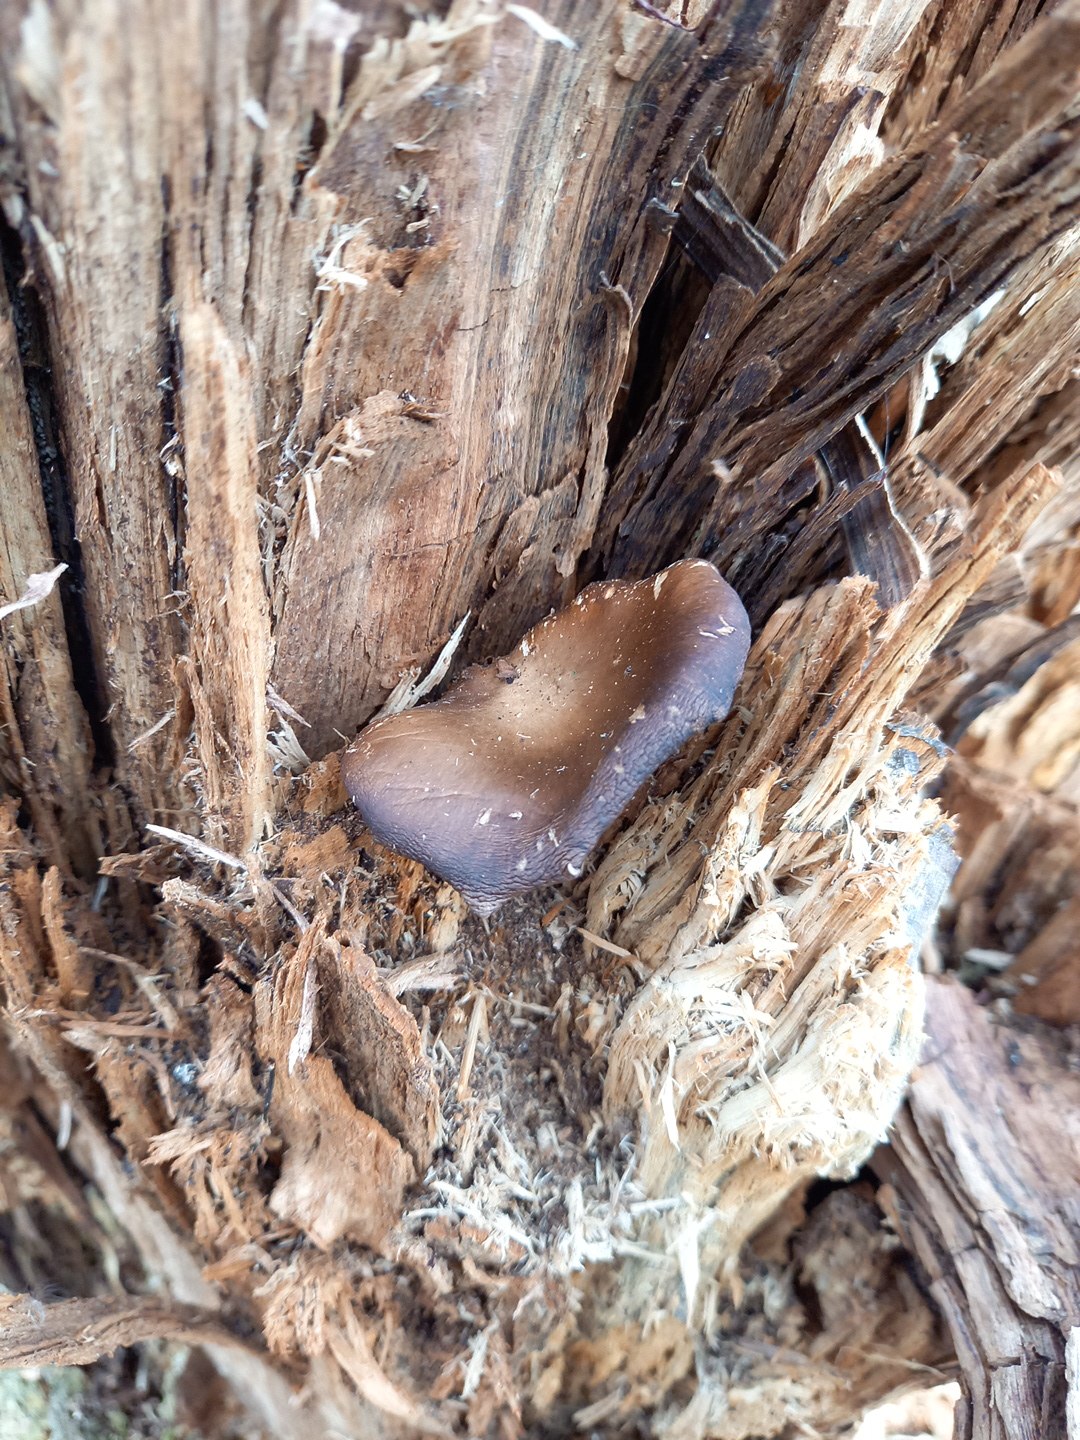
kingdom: Fungi
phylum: Basidiomycota
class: Agaricomycetes
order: Agaricales
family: Pleurotaceae
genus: Pleurotus
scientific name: Pleurotus ostreatus
